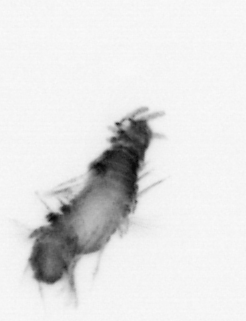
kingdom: Animalia
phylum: Annelida
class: Polychaeta
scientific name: Polychaeta
